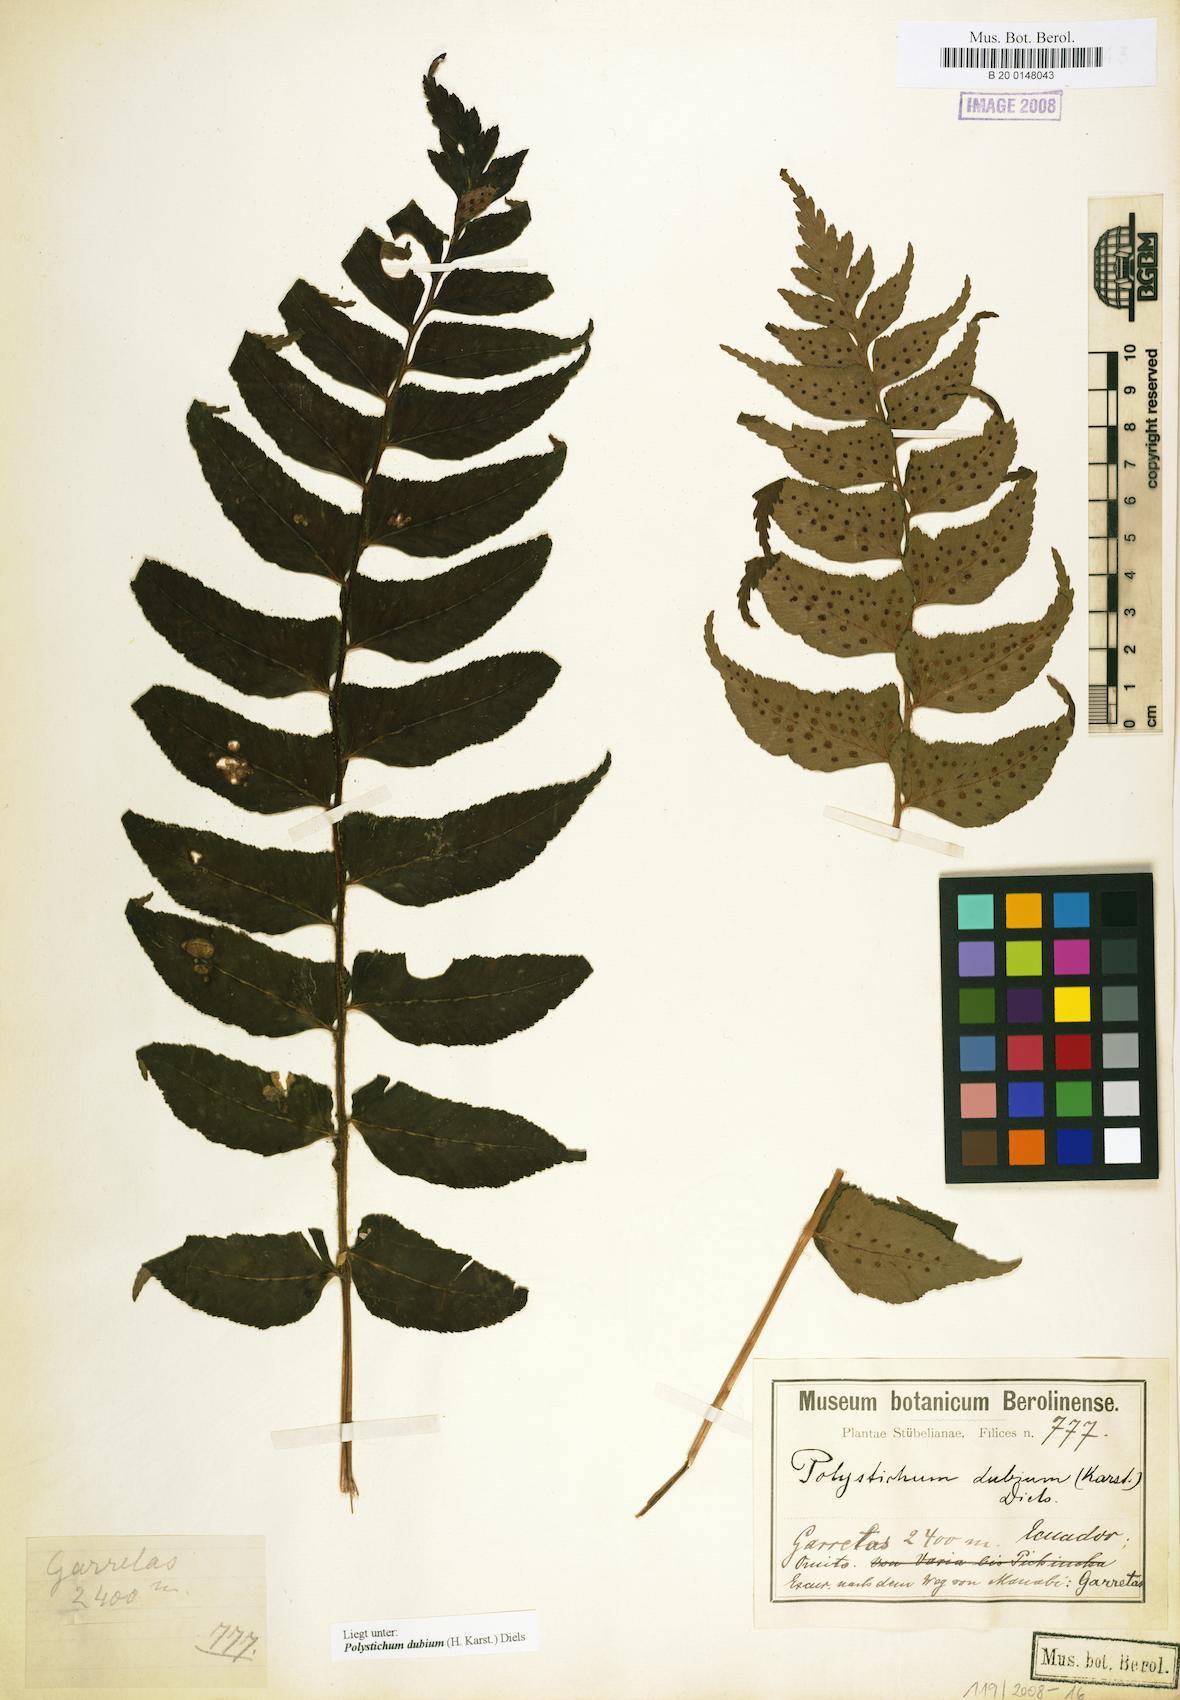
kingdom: Plantae
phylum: Tracheophyta
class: Polypodiopsida
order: Polypodiales
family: Dryopteridaceae
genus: Polystichum
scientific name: Polystichum dubium
